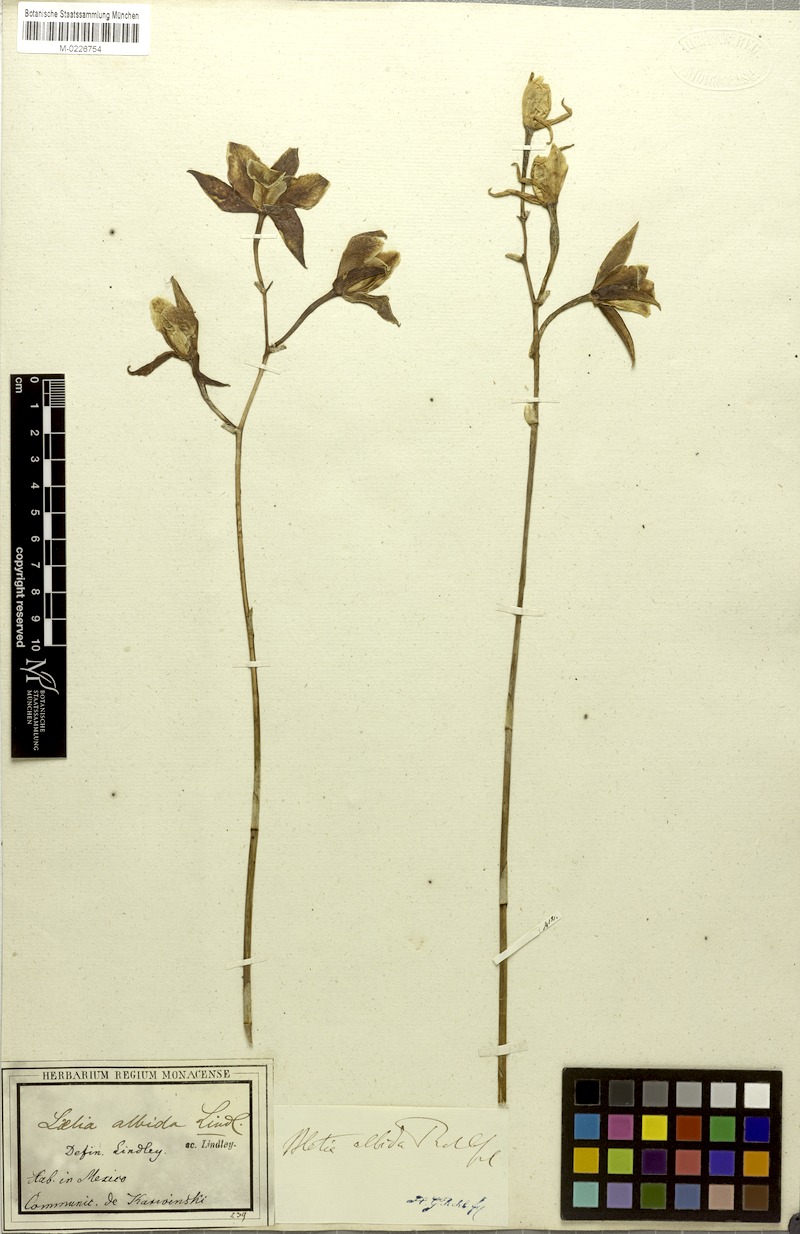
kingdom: Plantae
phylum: Tracheophyta
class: Liliopsida
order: Asparagales
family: Orchidaceae
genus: Laelia
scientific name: Laelia albida
